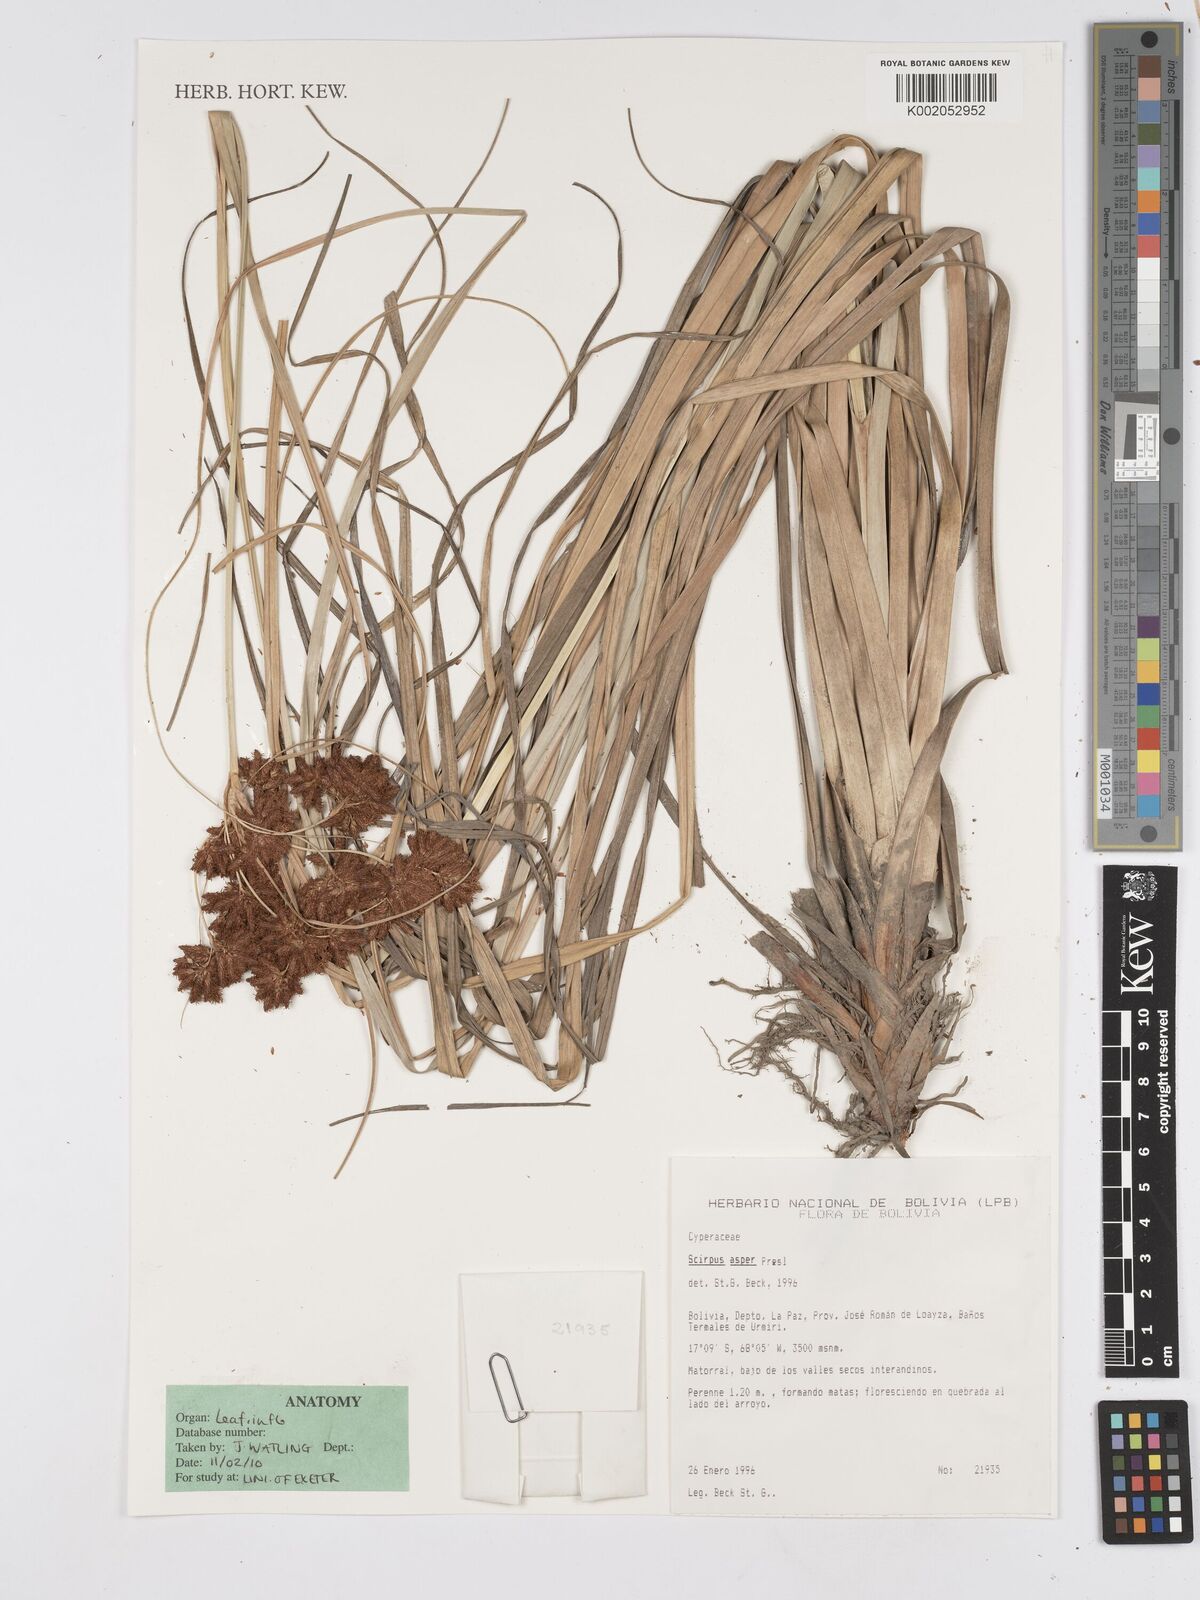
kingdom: Plantae
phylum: Tracheophyta
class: Liliopsida
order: Poales
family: Cyperaceae
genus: Rhodoscirpus
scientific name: Rhodoscirpus asper
